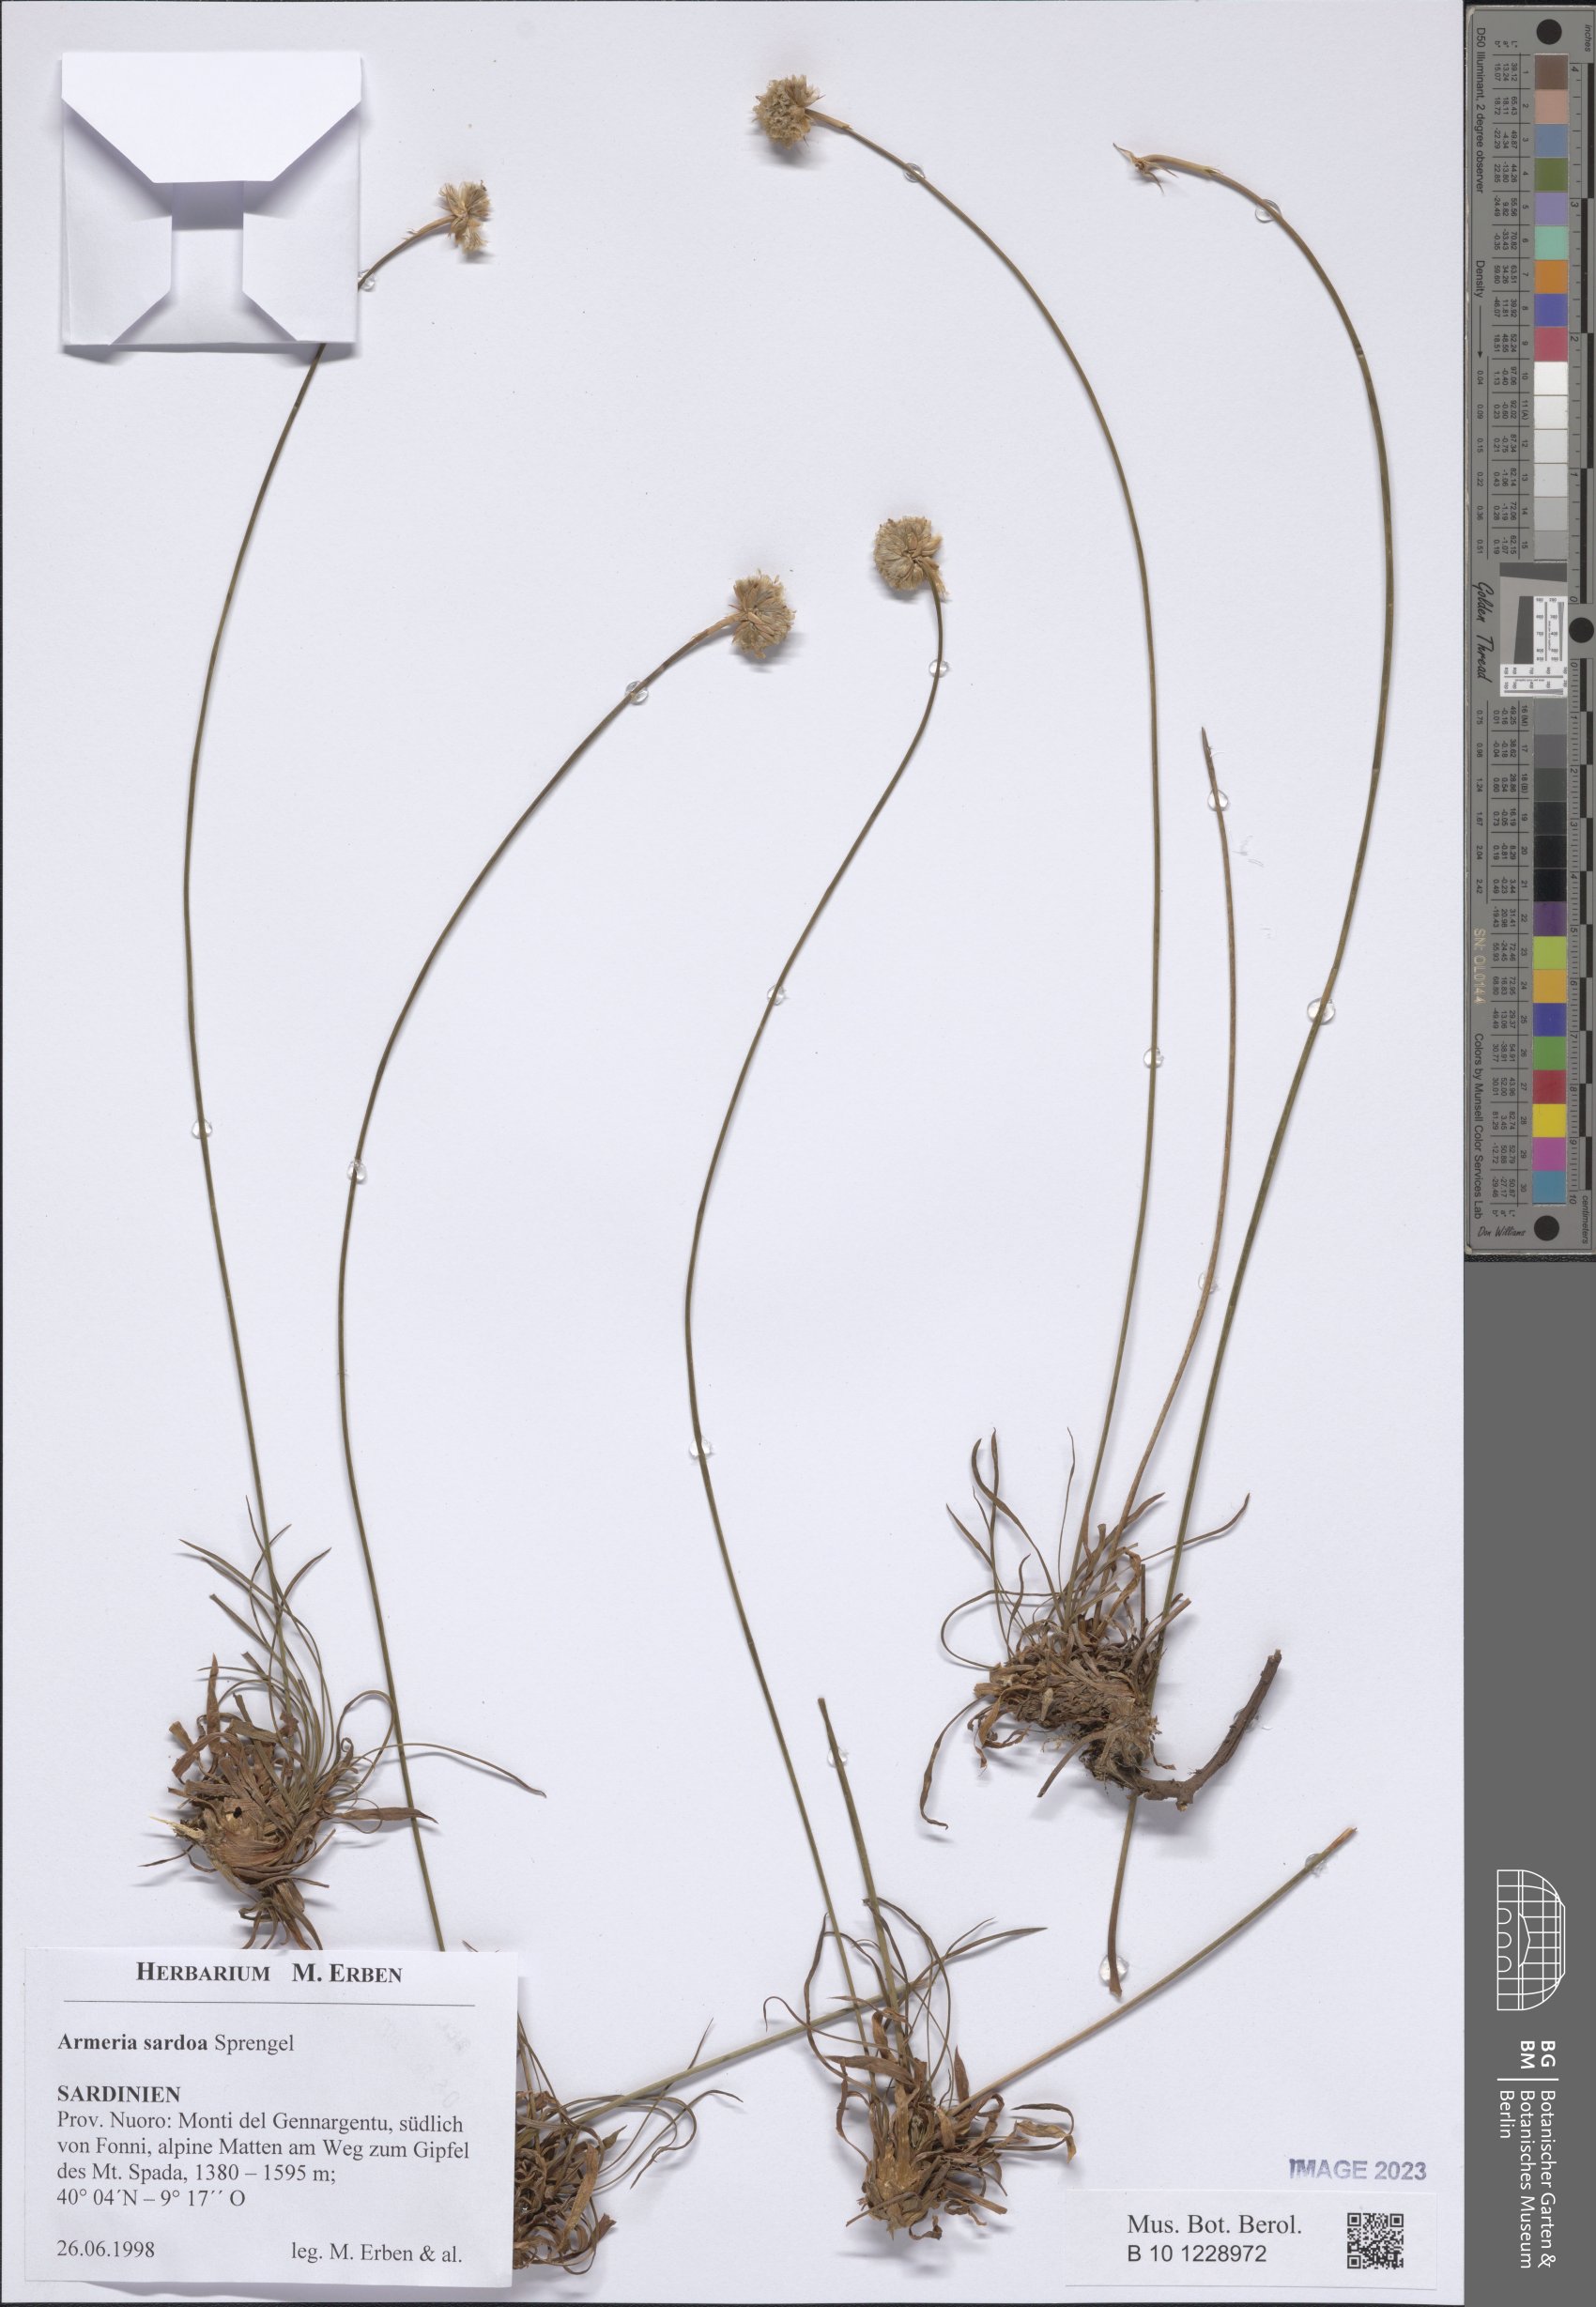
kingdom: Plantae
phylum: Tracheophyta
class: Magnoliopsida
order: Caryophyllales
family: Plumbaginaceae
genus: Armeria
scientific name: Armeria sardoa
